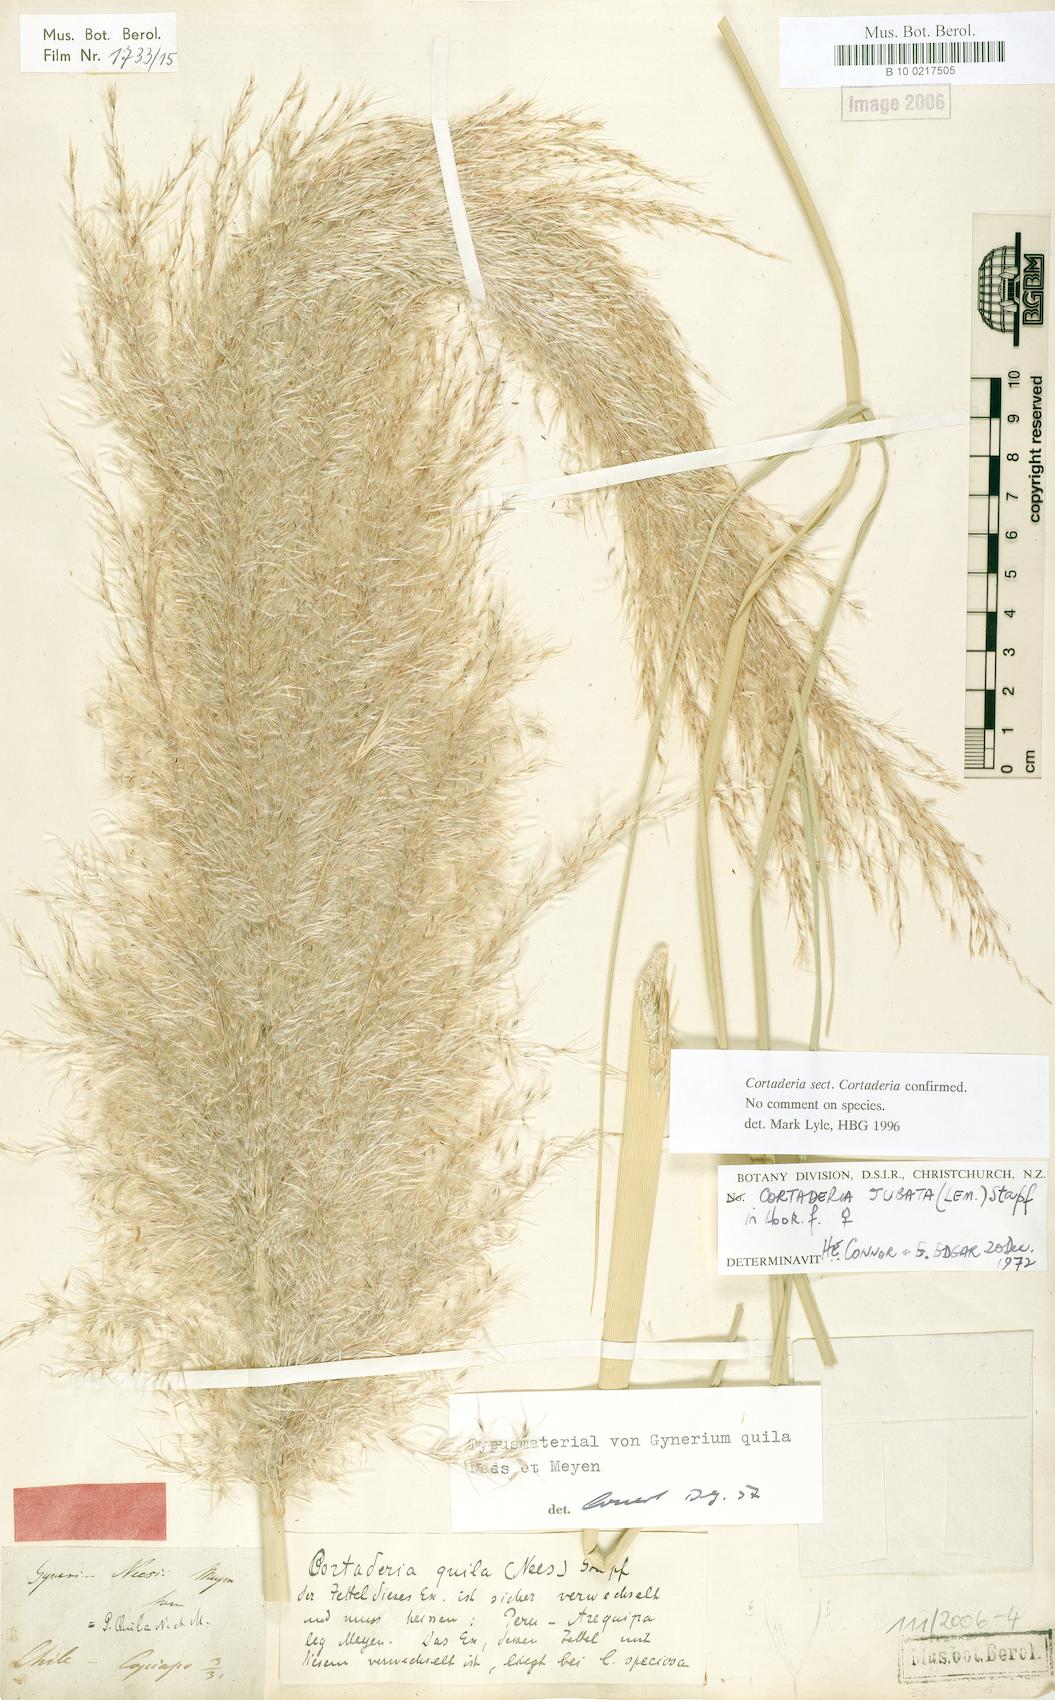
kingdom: Plantae
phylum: Tracheophyta
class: Liliopsida
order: Poales
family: Poaceae
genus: Chusquea
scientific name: Chusquea quila
